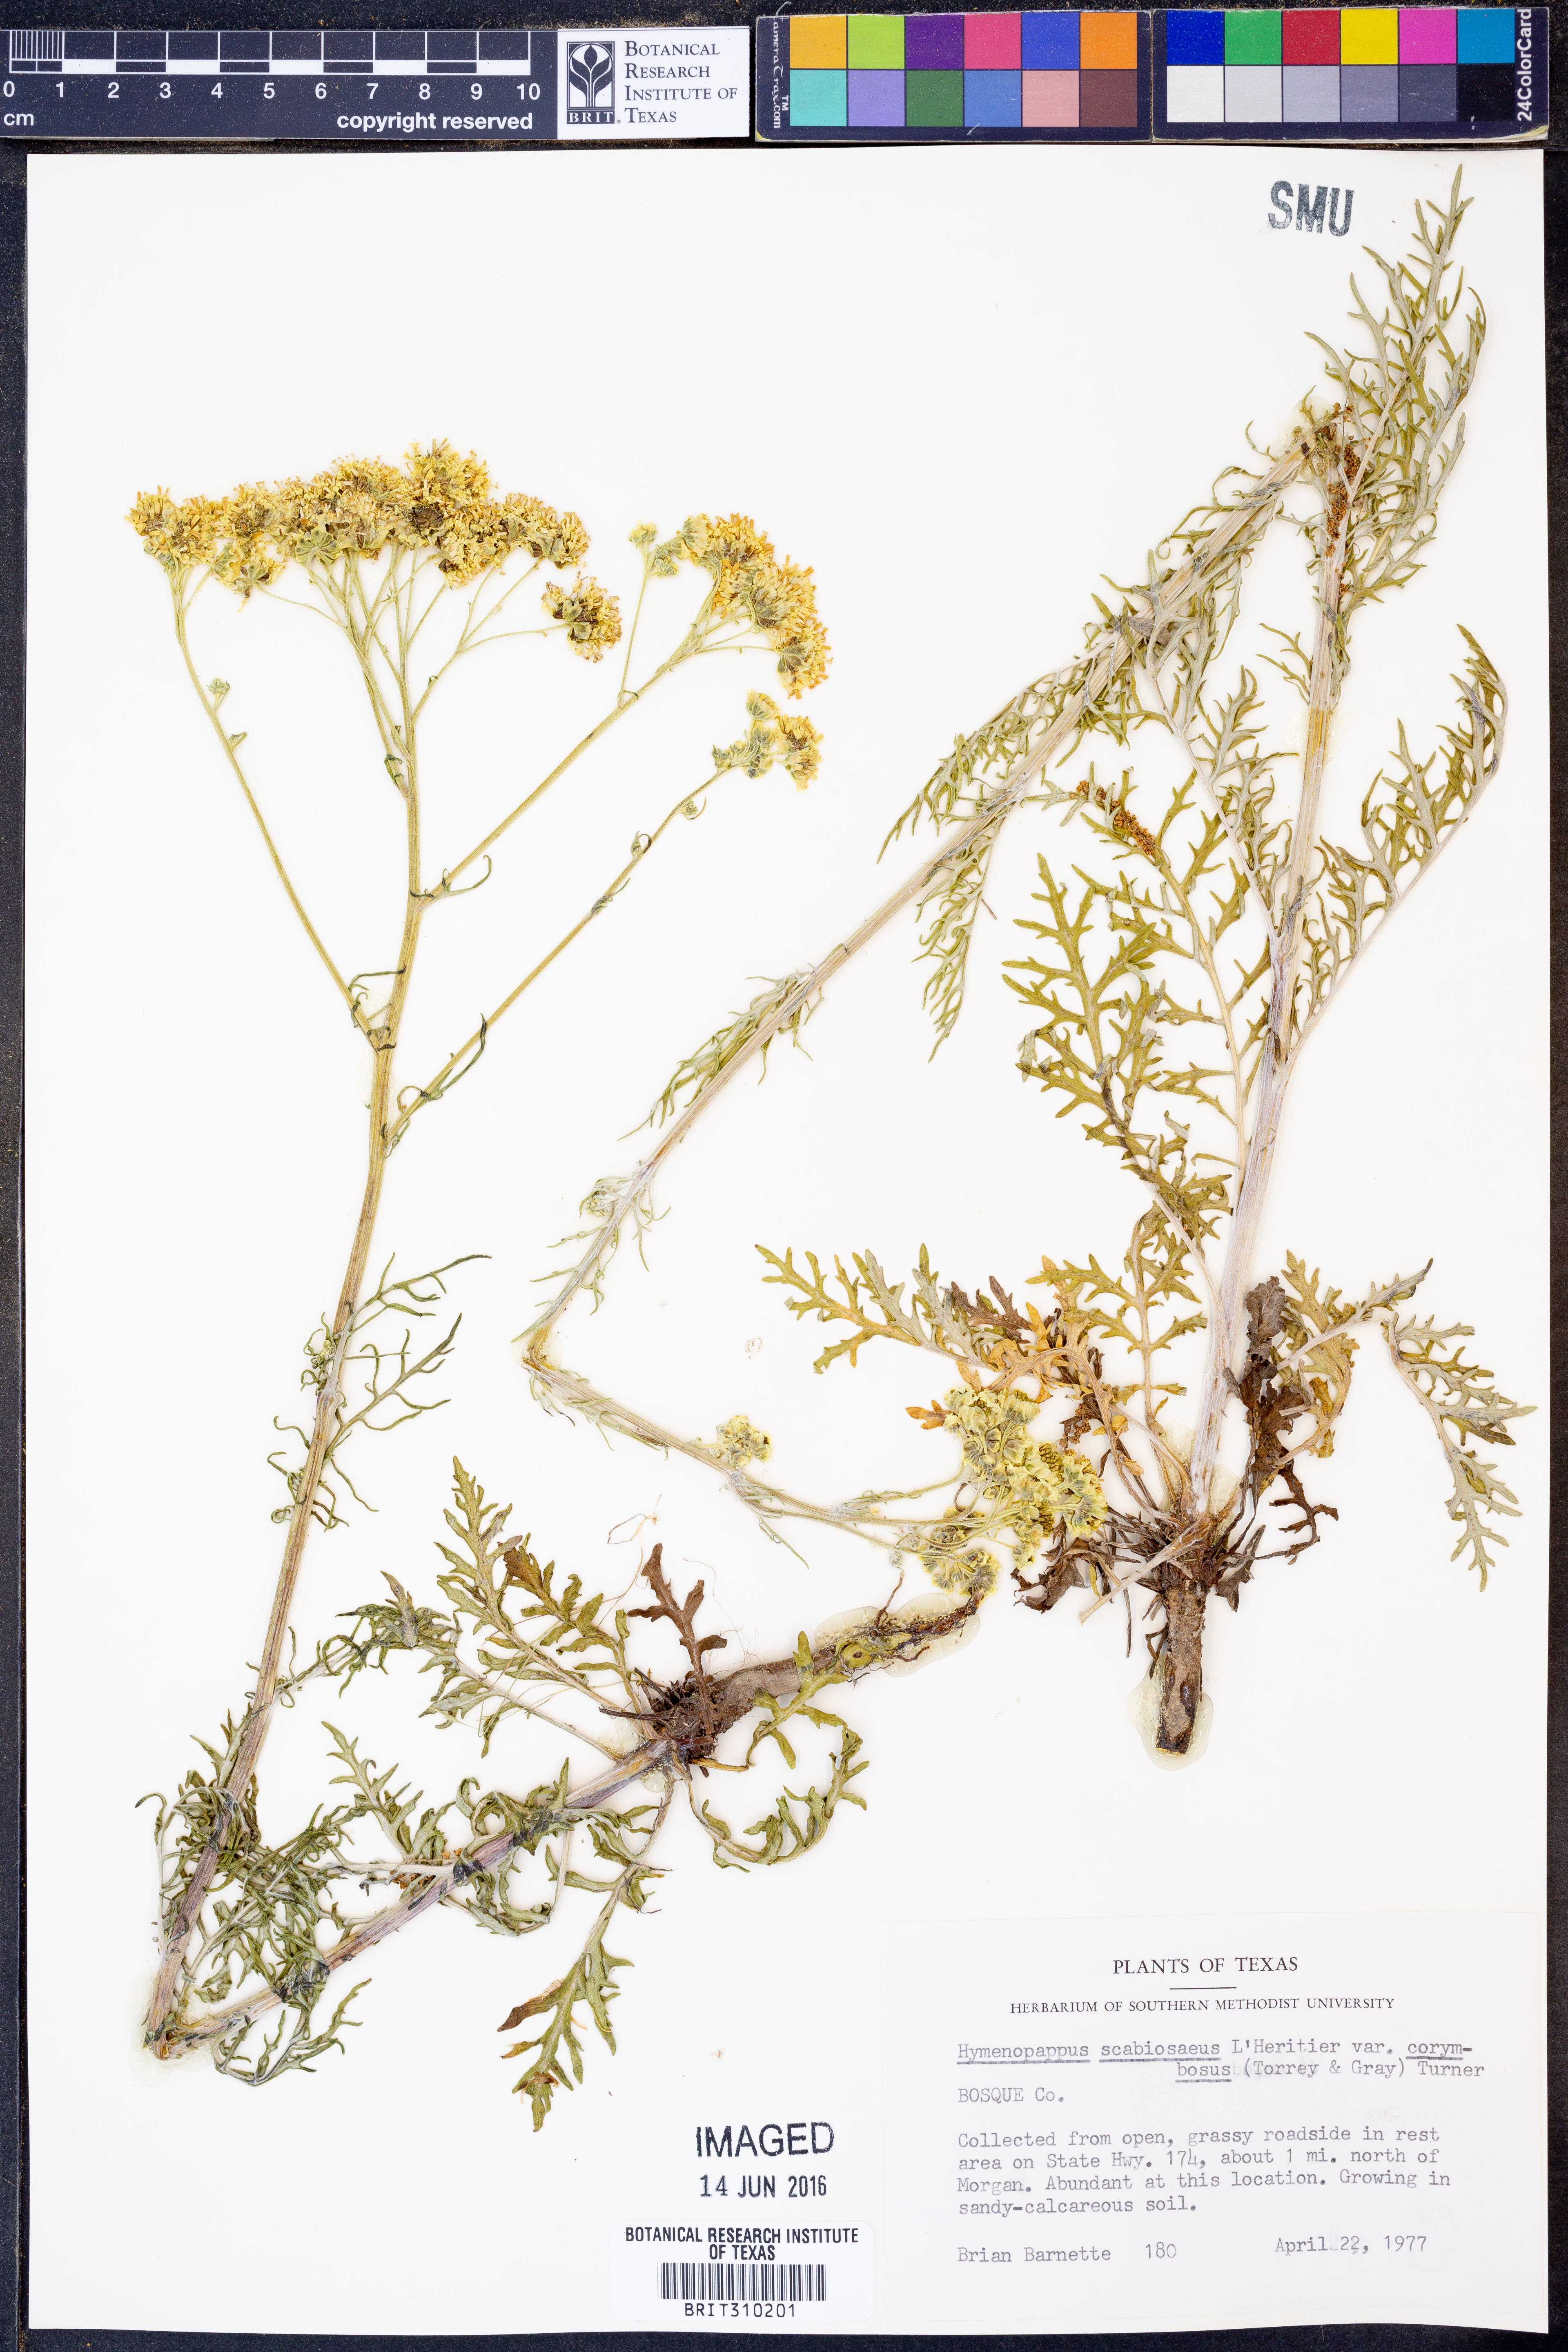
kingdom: Plantae
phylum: Tracheophyta
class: Magnoliopsida
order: Asterales
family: Asteraceae
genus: Hymenopappus
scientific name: Hymenopappus scabiosaeus
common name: Carolina woollywhite
